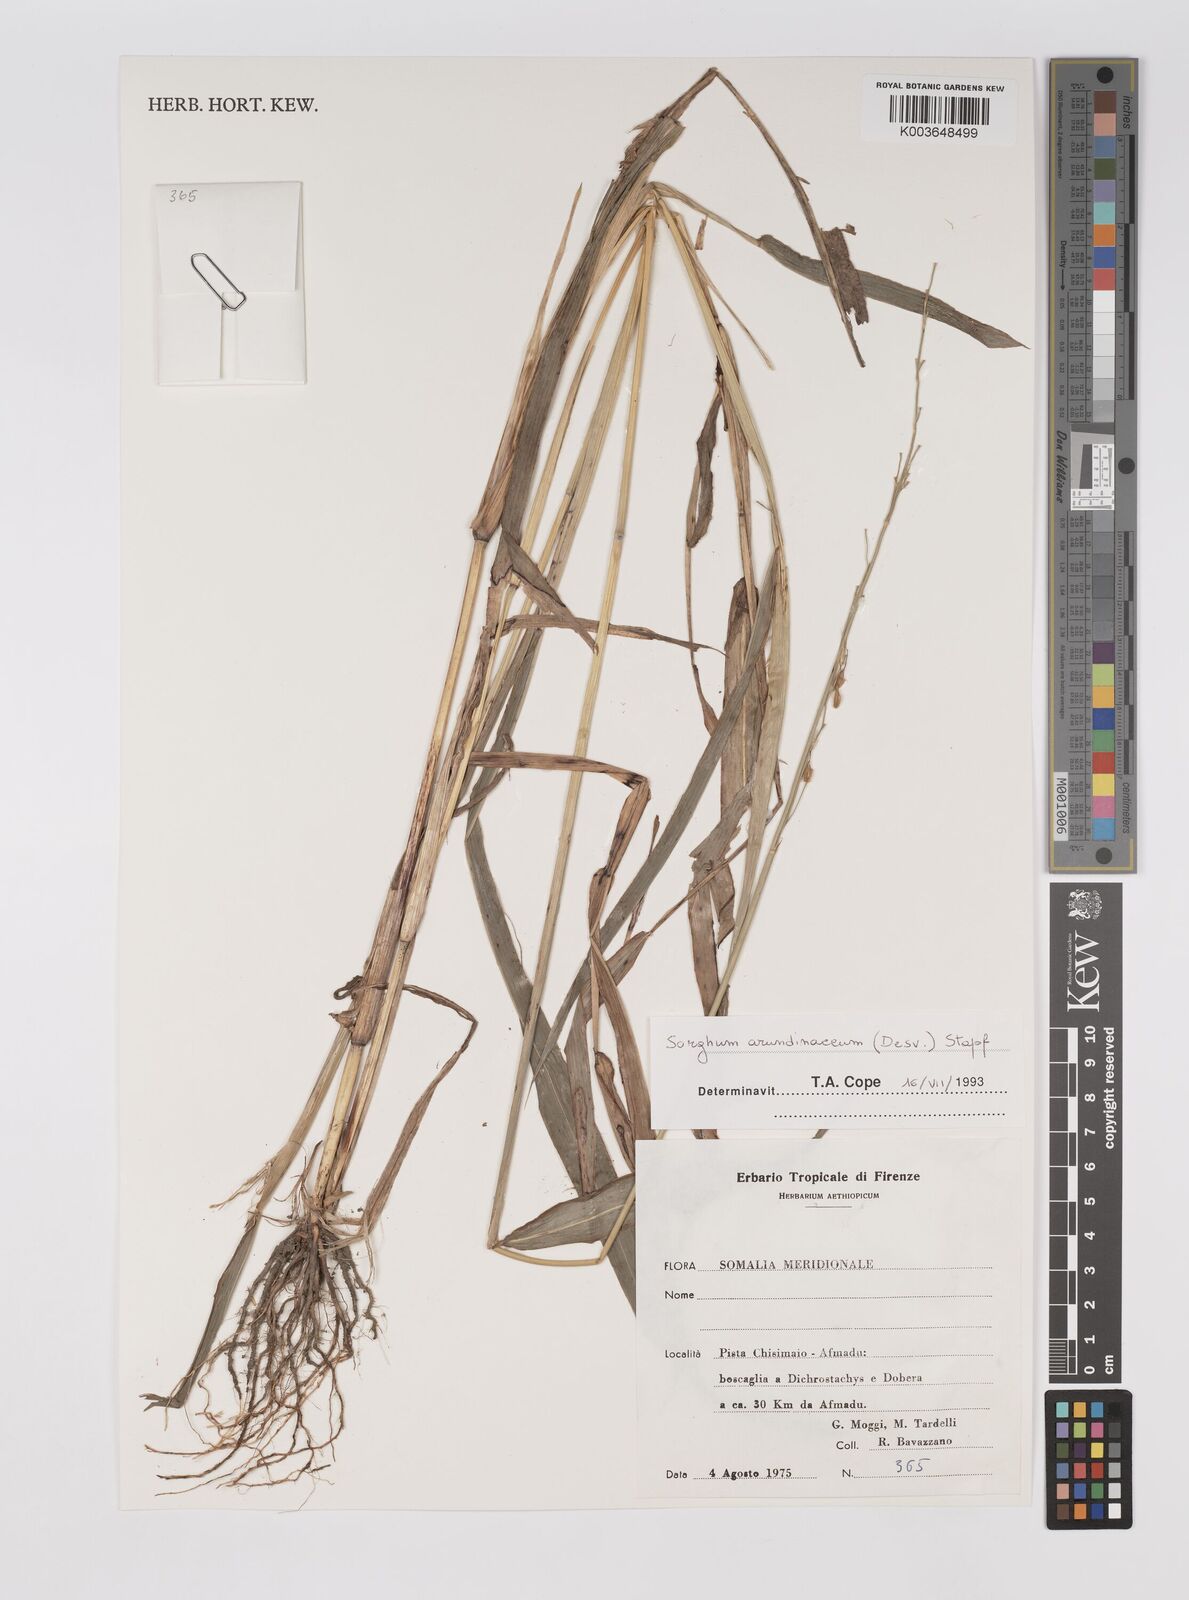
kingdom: Plantae
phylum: Tracheophyta
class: Liliopsida
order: Poales
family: Poaceae
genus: Sorghum
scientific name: Sorghum arundinaceum
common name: Sorghum
